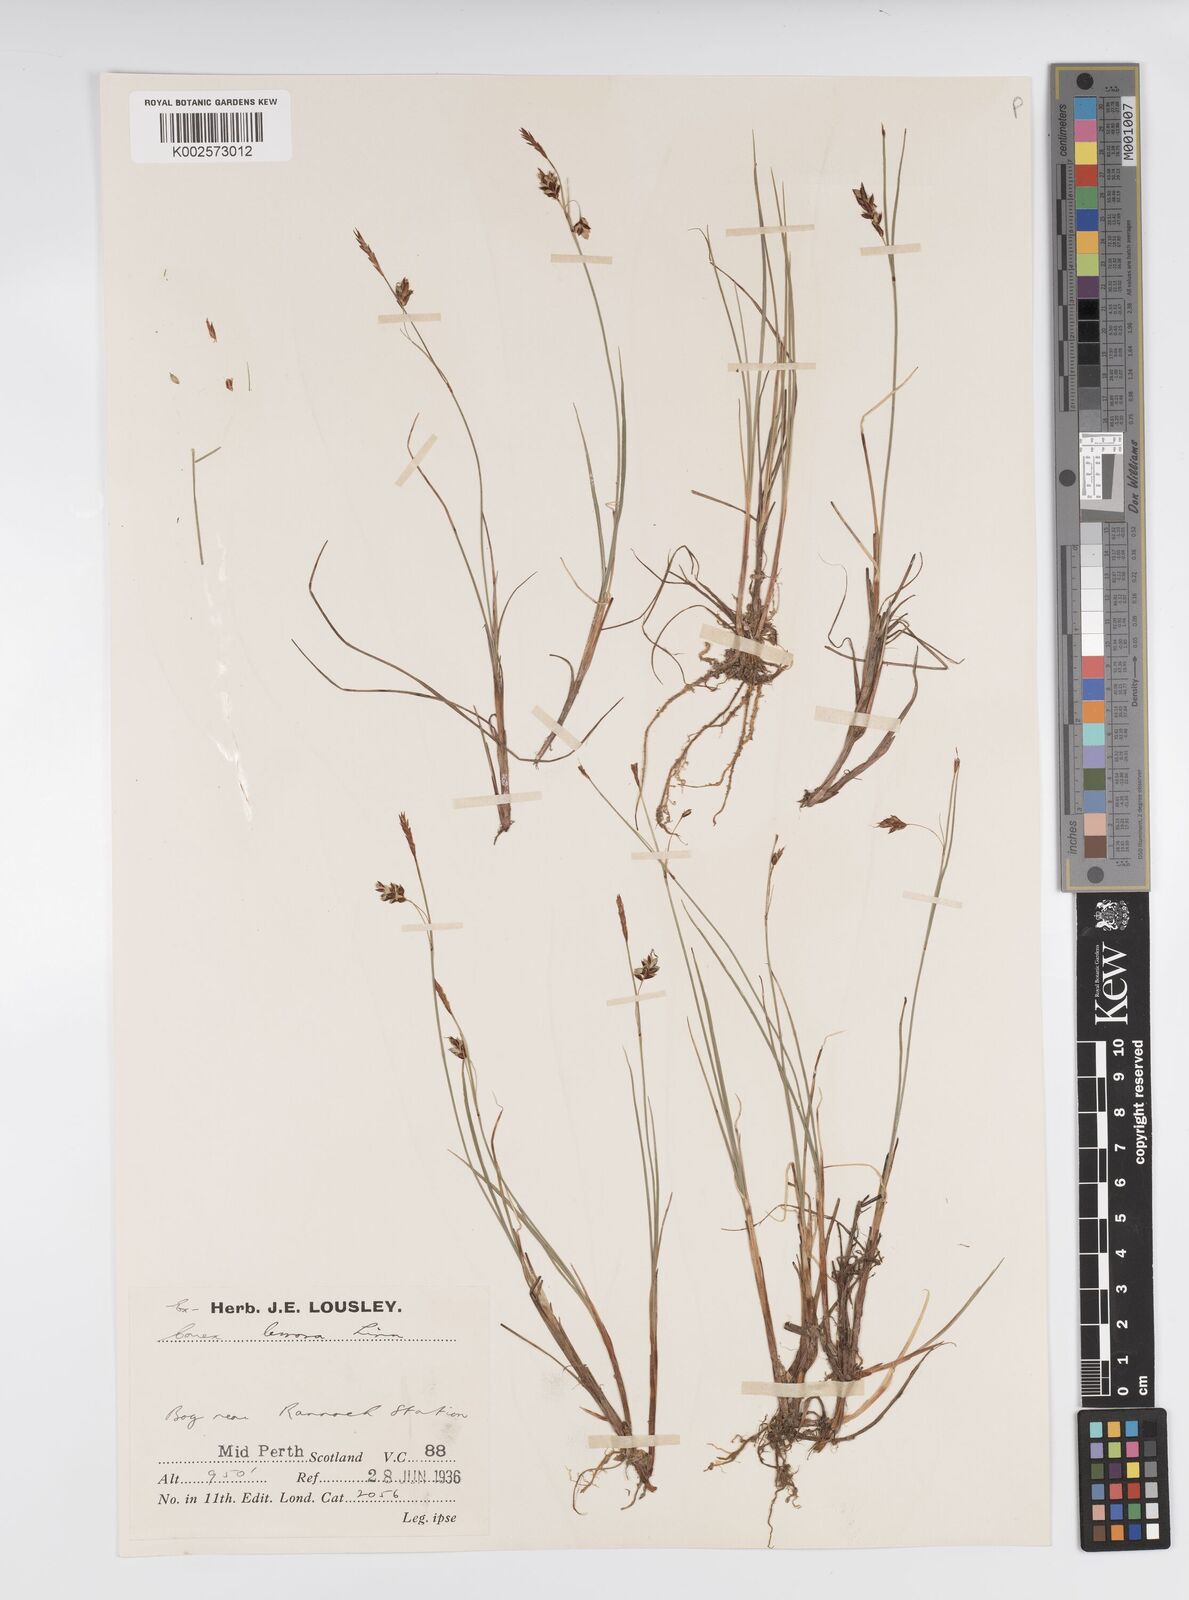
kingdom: Plantae
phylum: Tracheophyta
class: Liliopsida
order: Poales
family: Cyperaceae
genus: Carex
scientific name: Carex limosa
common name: Bog sedge
